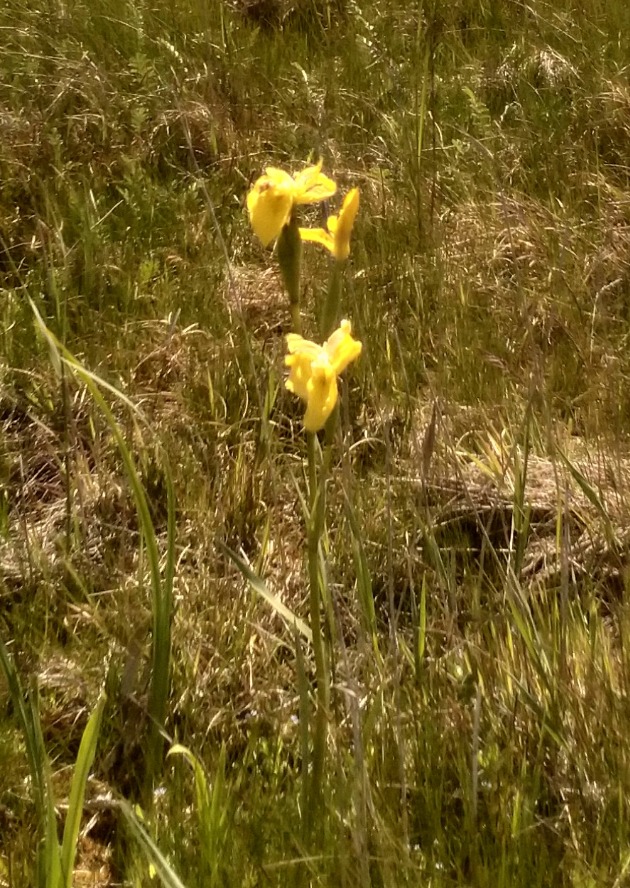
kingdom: Plantae
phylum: Tracheophyta
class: Liliopsida
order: Asparagales
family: Iridaceae
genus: Iris
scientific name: Iris pseudacorus
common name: Gul iris
